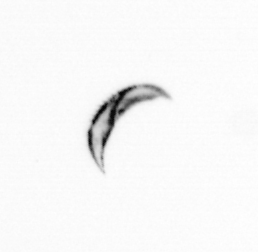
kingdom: Chromista
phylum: Ochrophyta
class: Bacillariophyceae
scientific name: Bacillariophyceae
